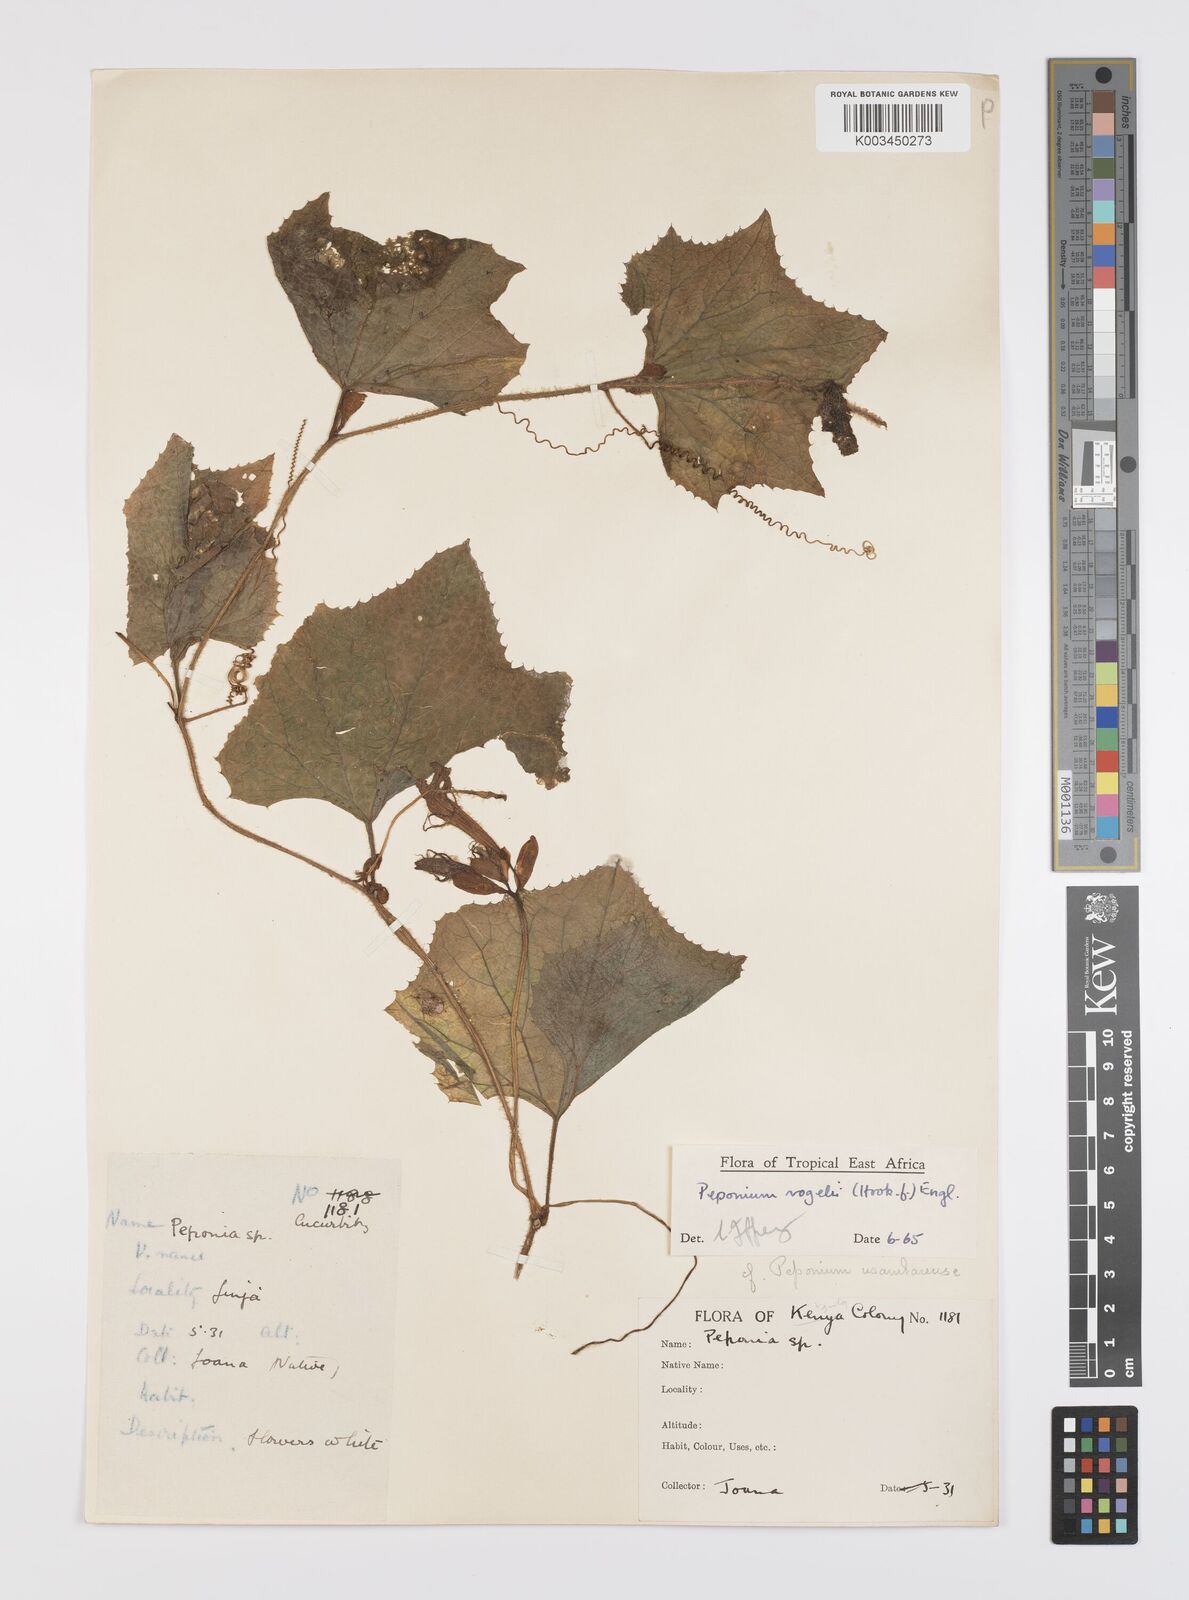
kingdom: Plantae
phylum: Tracheophyta
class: Magnoliopsida
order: Cucurbitales
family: Cucurbitaceae
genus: Peponium
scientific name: Peponium vogelii
